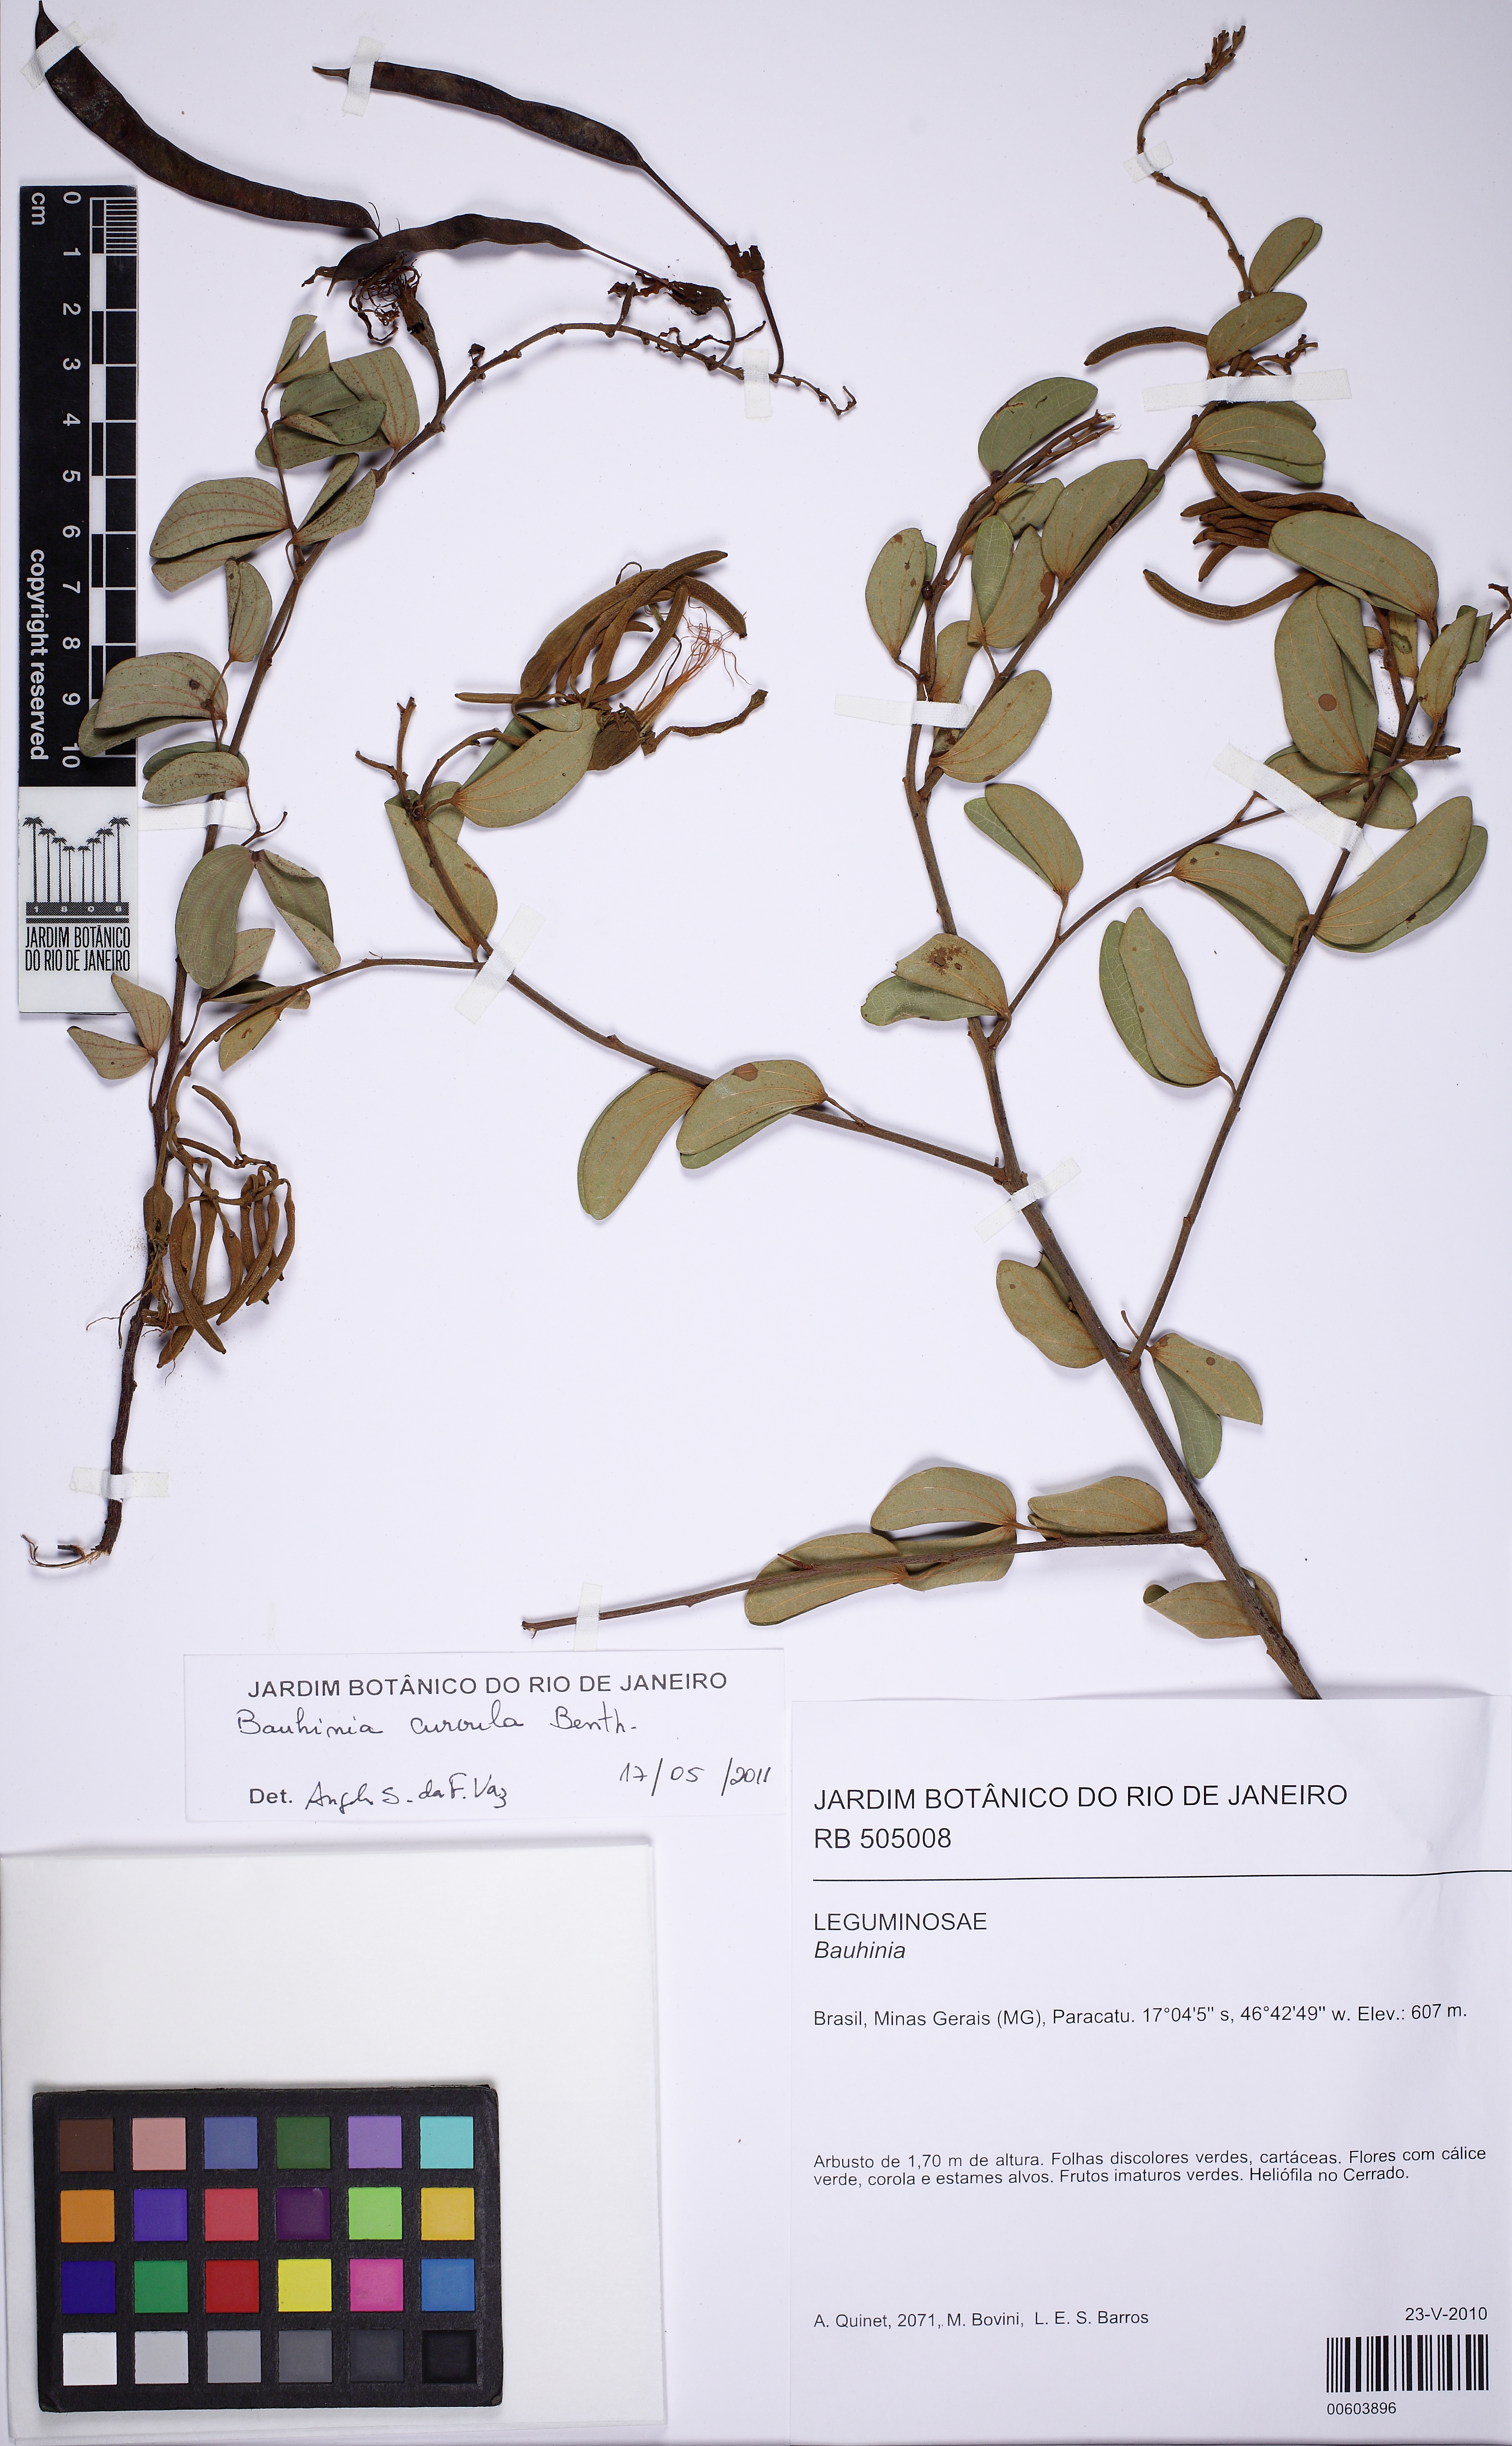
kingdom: Plantae
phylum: Tracheophyta
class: Magnoliopsida
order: Fabales
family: Fabaceae
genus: Bauhinia
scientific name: Bauhinia curvula
